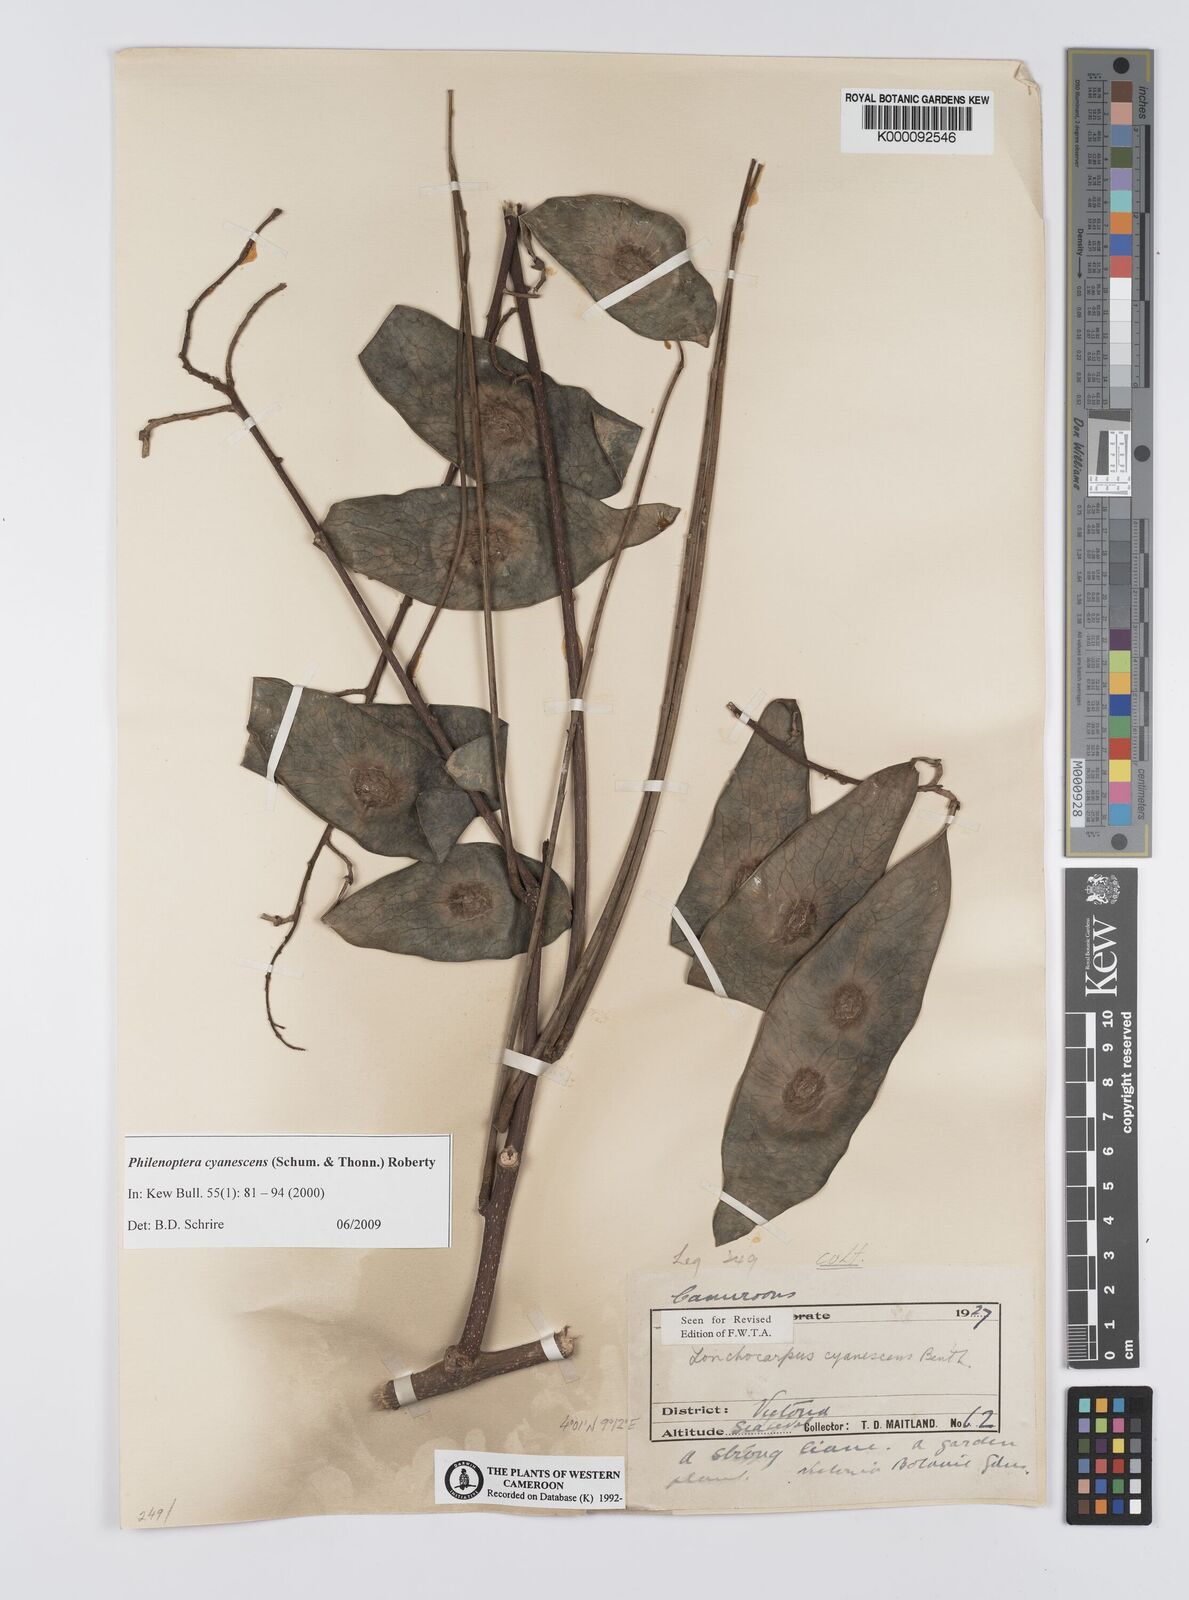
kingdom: Plantae
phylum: Tracheophyta
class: Magnoliopsida
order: Fabales
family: Fabaceae
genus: Philenoptera
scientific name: Philenoptera cyanescens
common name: West african-indigo
